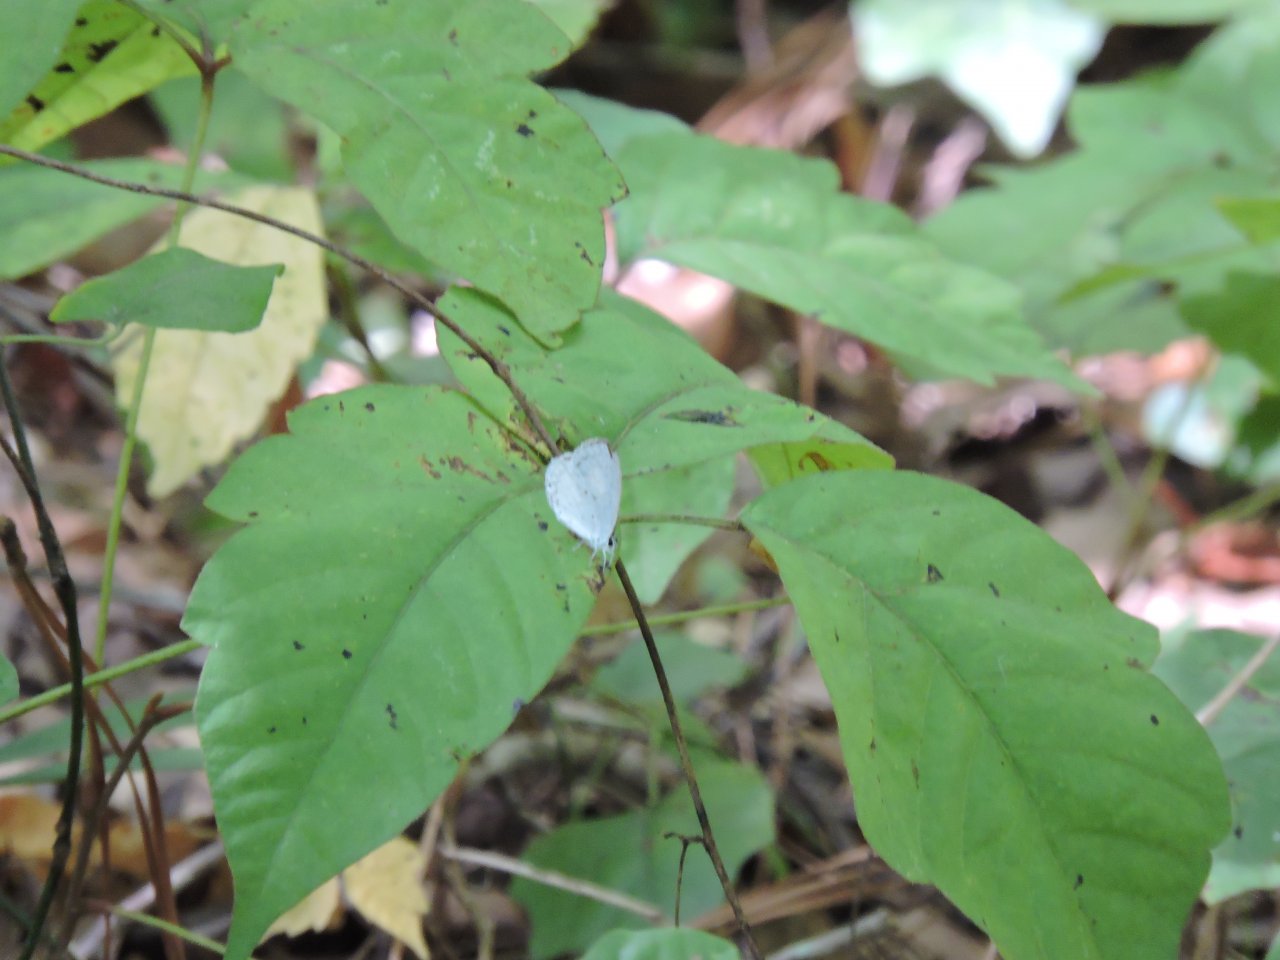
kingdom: Animalia
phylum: Arthropoda
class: Insecta
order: Lepidoptera
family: Lycaenidae
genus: Cyaniris
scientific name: Cyaniris neglecta
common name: Summer Azure
